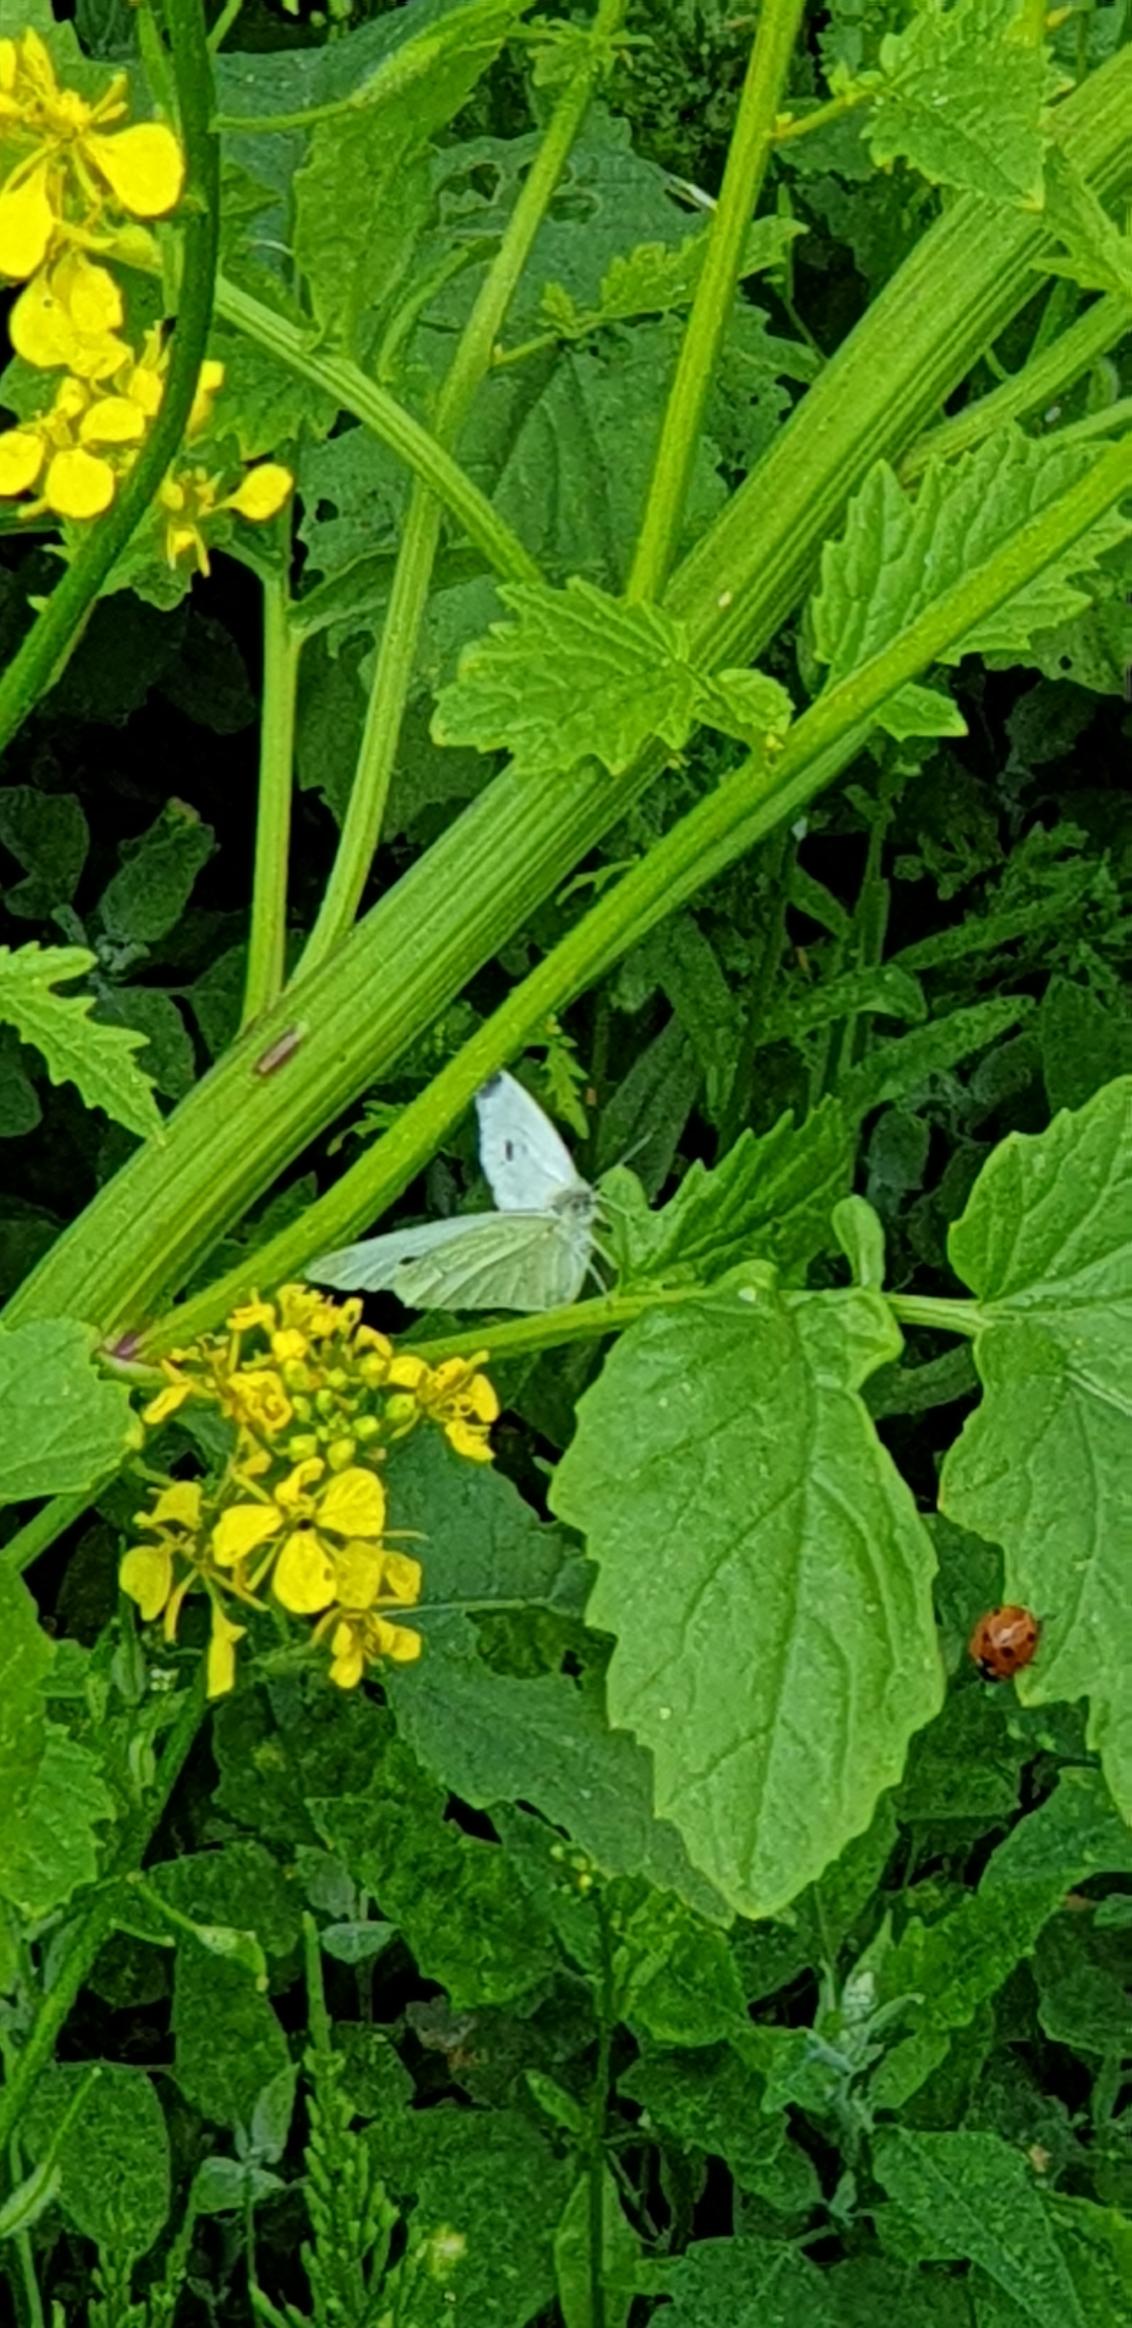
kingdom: Animalia
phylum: Arthropoda
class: Insecta
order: Lepidoptera
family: Pieridae
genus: Pieris
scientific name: Pieris rapae
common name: Lille kålsommerfugl
